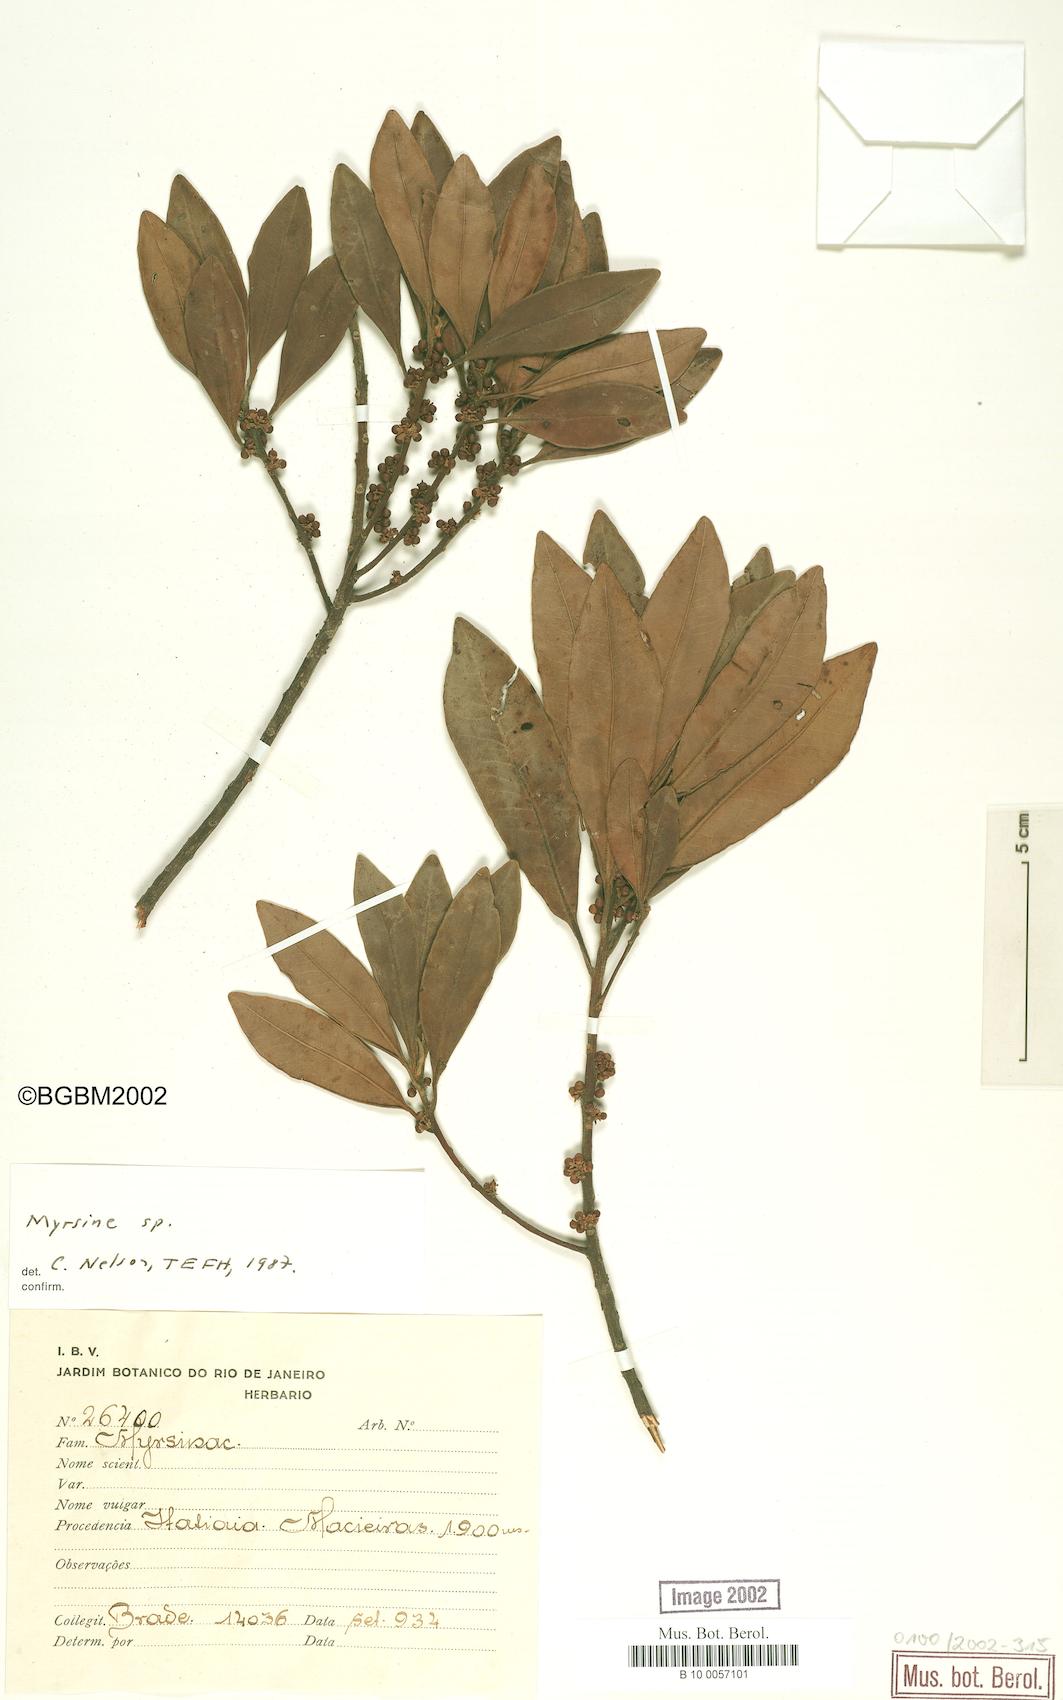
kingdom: Plantae
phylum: Tracheophyta
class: Magnoliopsida
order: Ericales
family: Primulaceae
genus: Myrsine
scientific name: Myrsine
